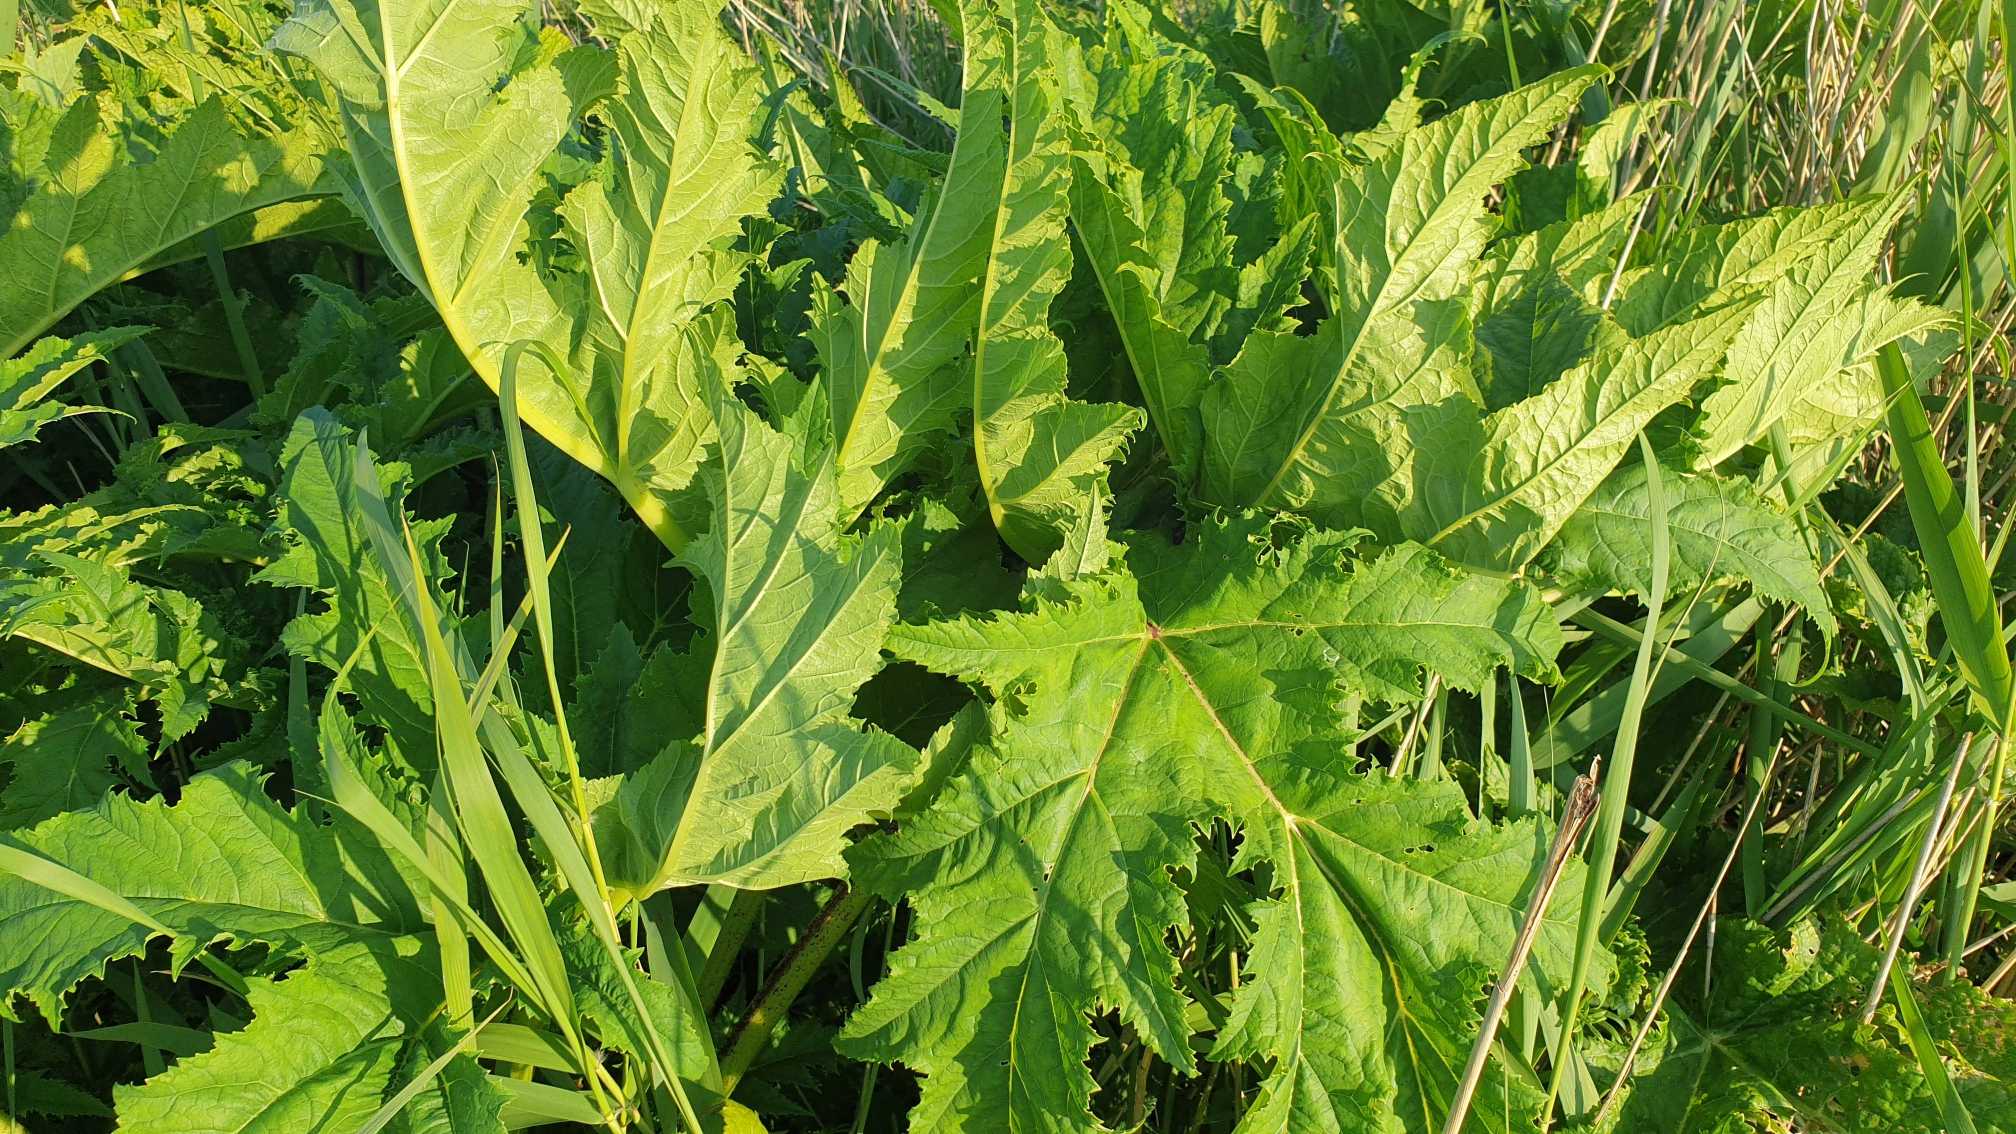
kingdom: Plantae
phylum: Tracheophyta
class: Magnoliopsida
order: Apiales
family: Apiaceae
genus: Heracleum
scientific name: Heracleum mantegazzianum
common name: Kæmpe-bjørneklo
